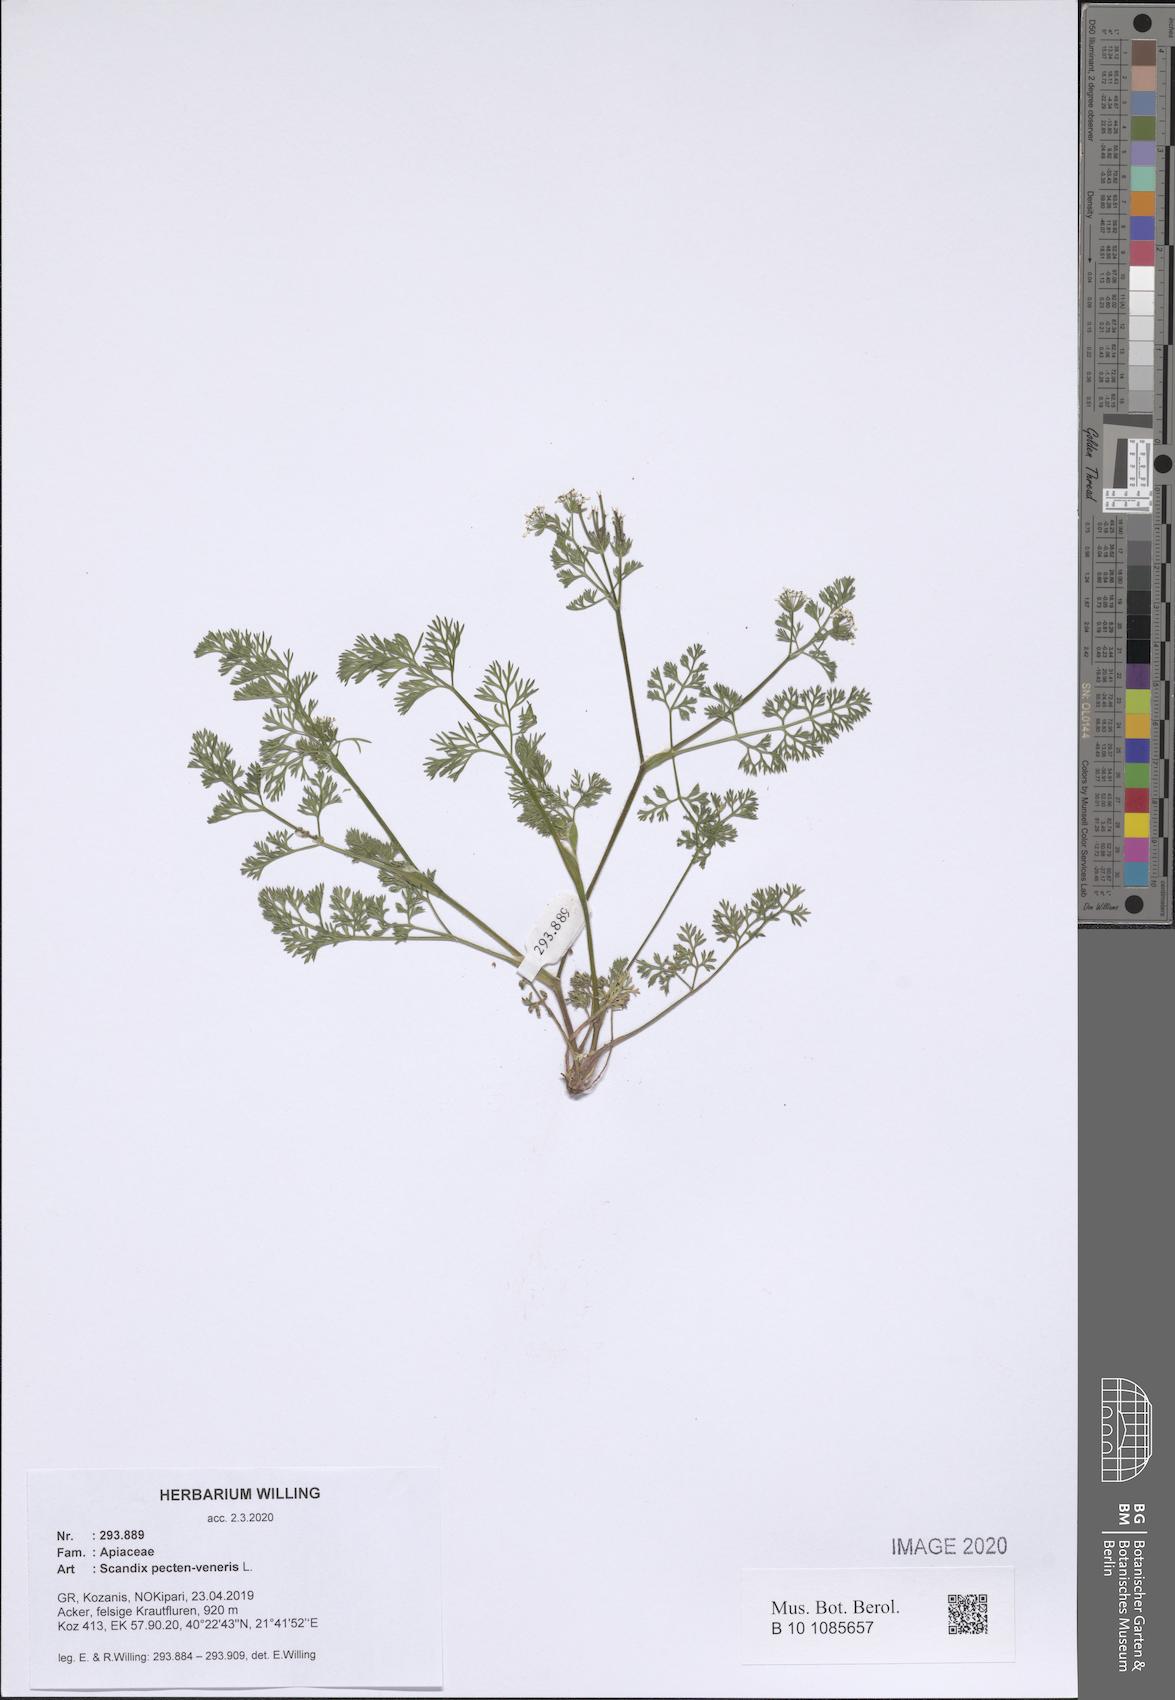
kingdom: Plantae
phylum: Tracheophyta
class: Magnoliopsida
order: Apiales
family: Apiaceae
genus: Scandix
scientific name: Scandix pecten-veneris
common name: Shepherd's-needle
